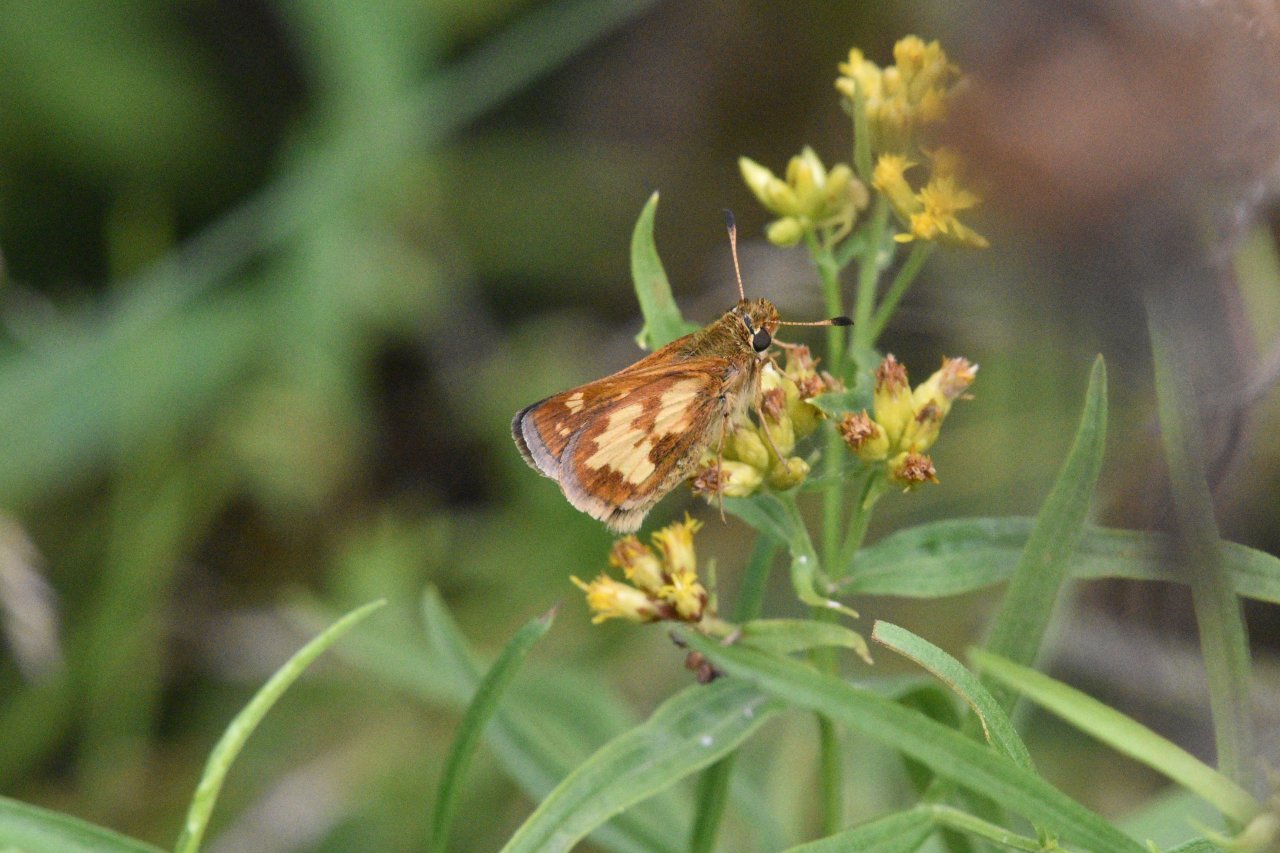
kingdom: Animalia
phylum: Arthropoda
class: Insecta
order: Lepidoptera
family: Hesperiidae
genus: Polites
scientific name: Polites coras
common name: Peck's Skipper
